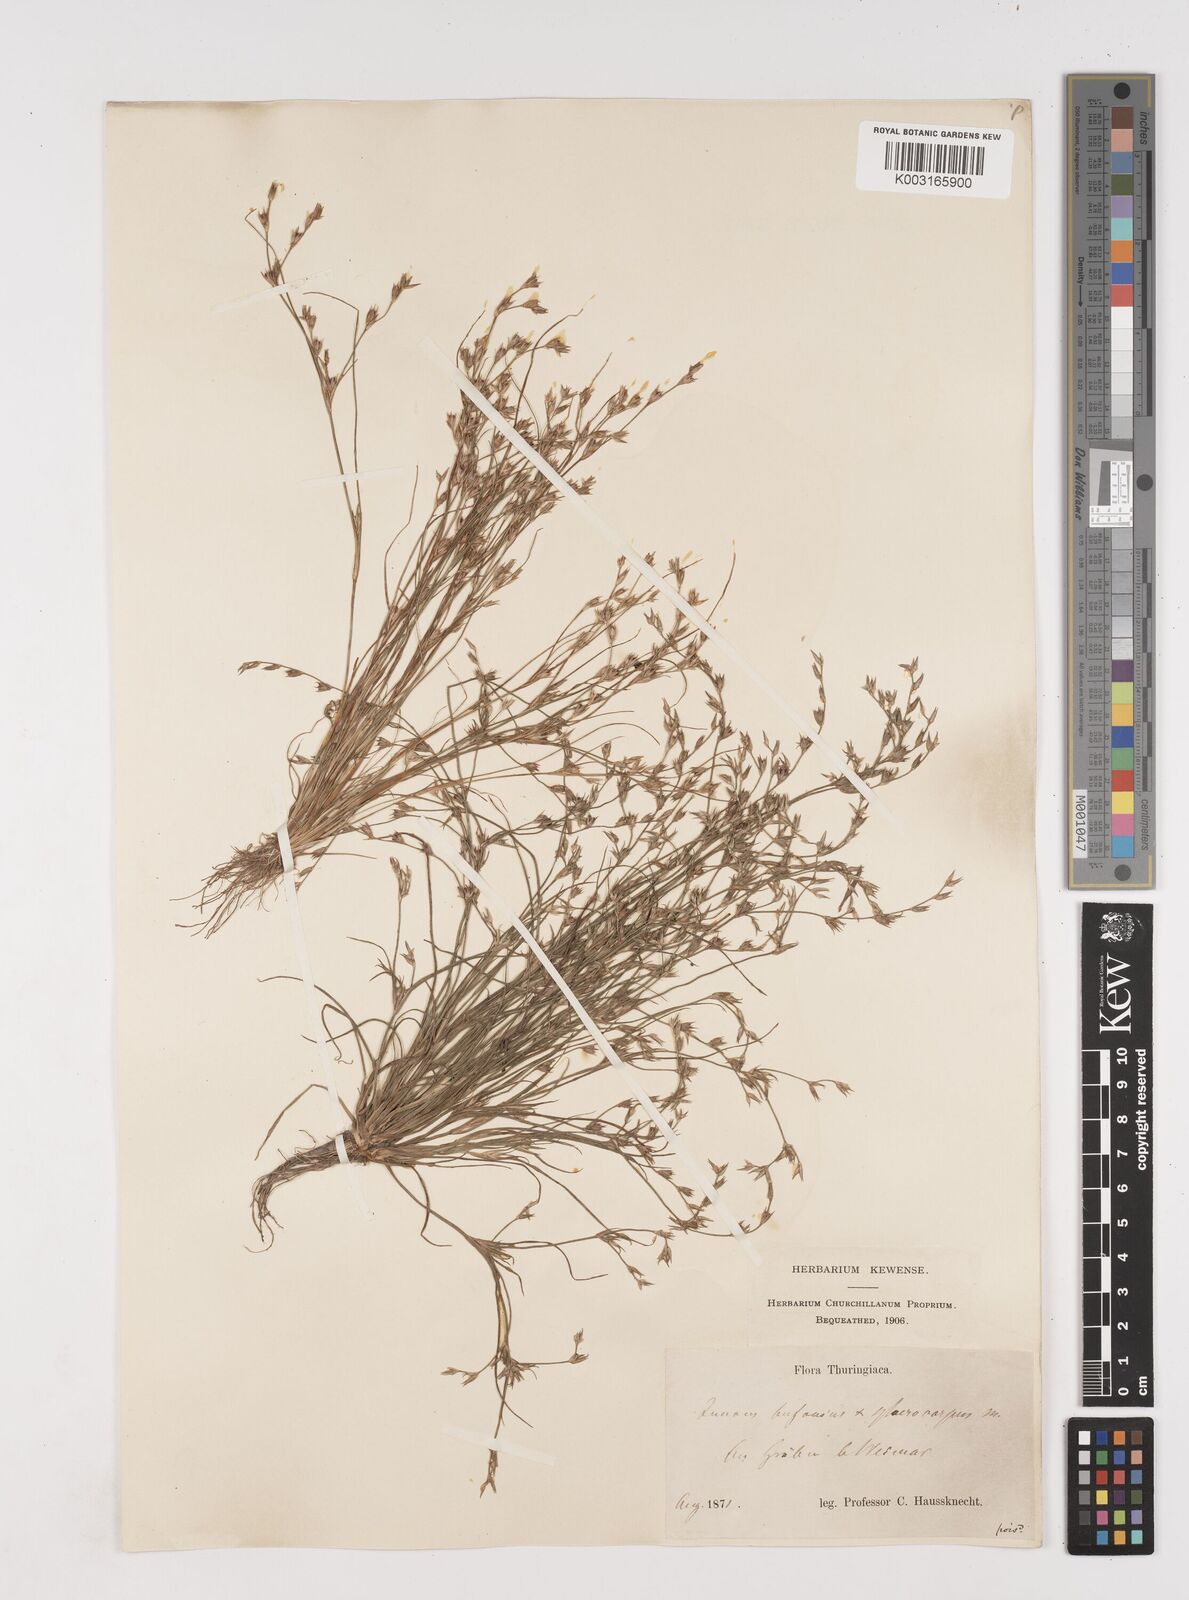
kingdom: Plantae
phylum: Tracheophyta
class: Liliopsida
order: Poales
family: Juncaceae
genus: Juncus
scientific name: Juncus bufonius
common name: Toad rush
